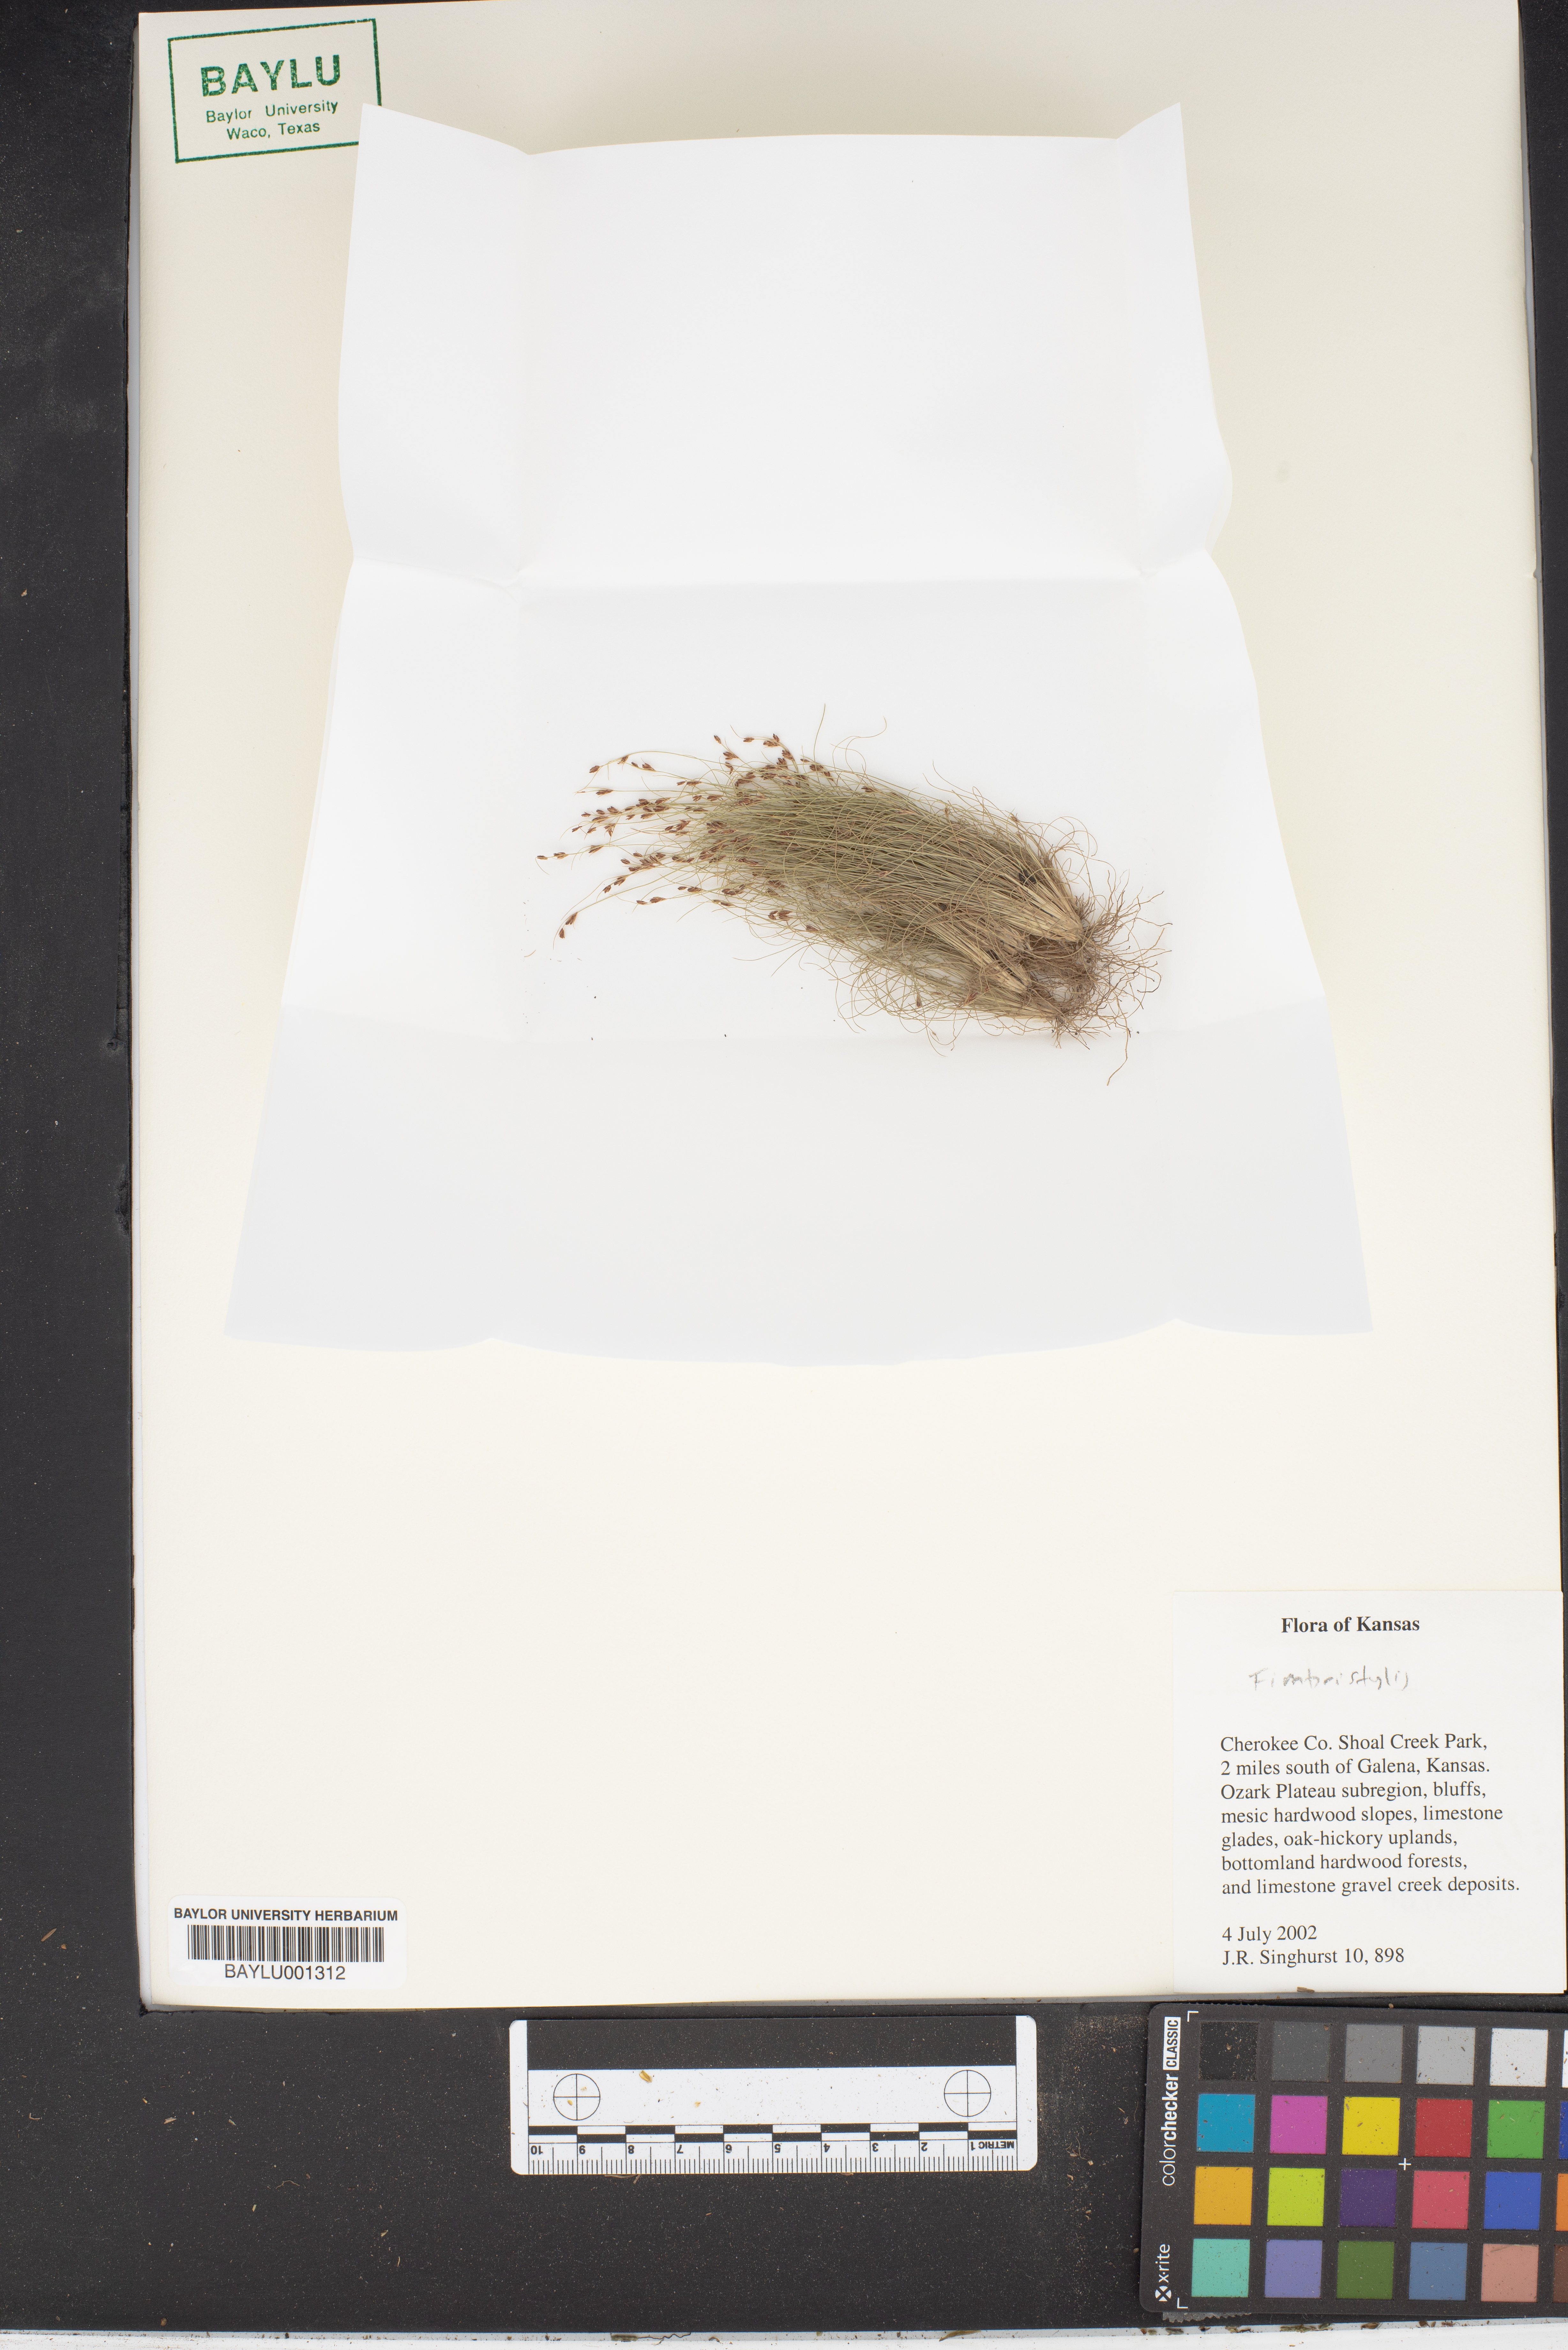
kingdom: Plantae
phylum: Tracheophyta
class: Liliopsida
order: Poales
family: Cyperaceae
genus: Fimbristylis
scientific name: Fimbristylis
